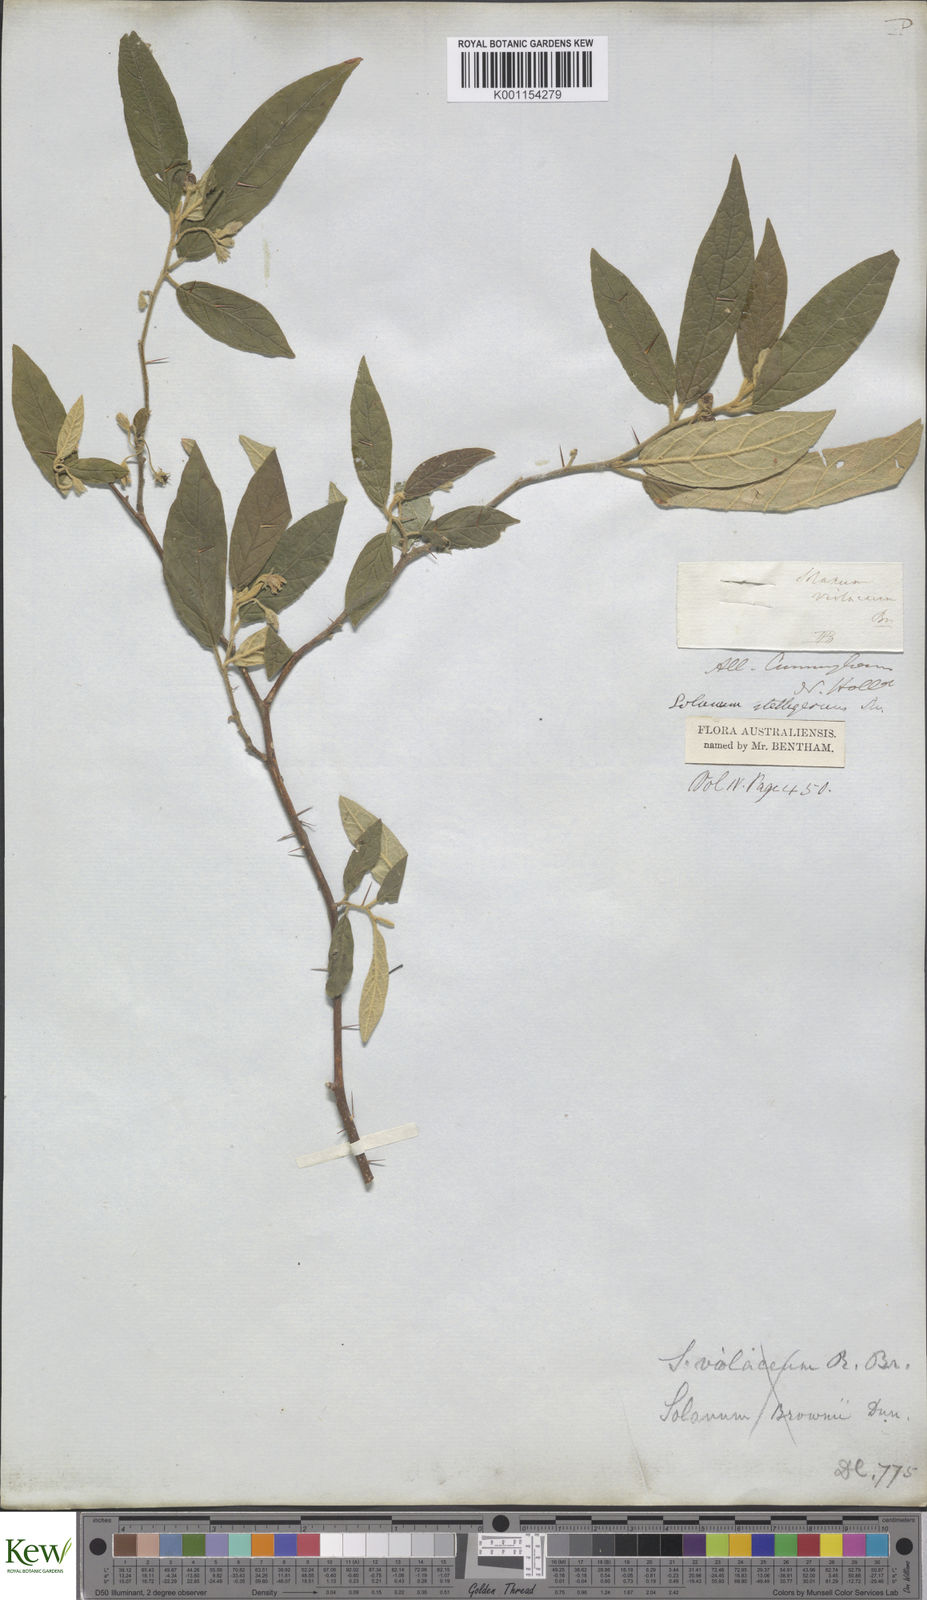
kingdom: Plantae
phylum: Tracheophyta
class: Magnoliopsida
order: Solanales
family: Solanaceae
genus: Solanum
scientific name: Solanum stelligerum
